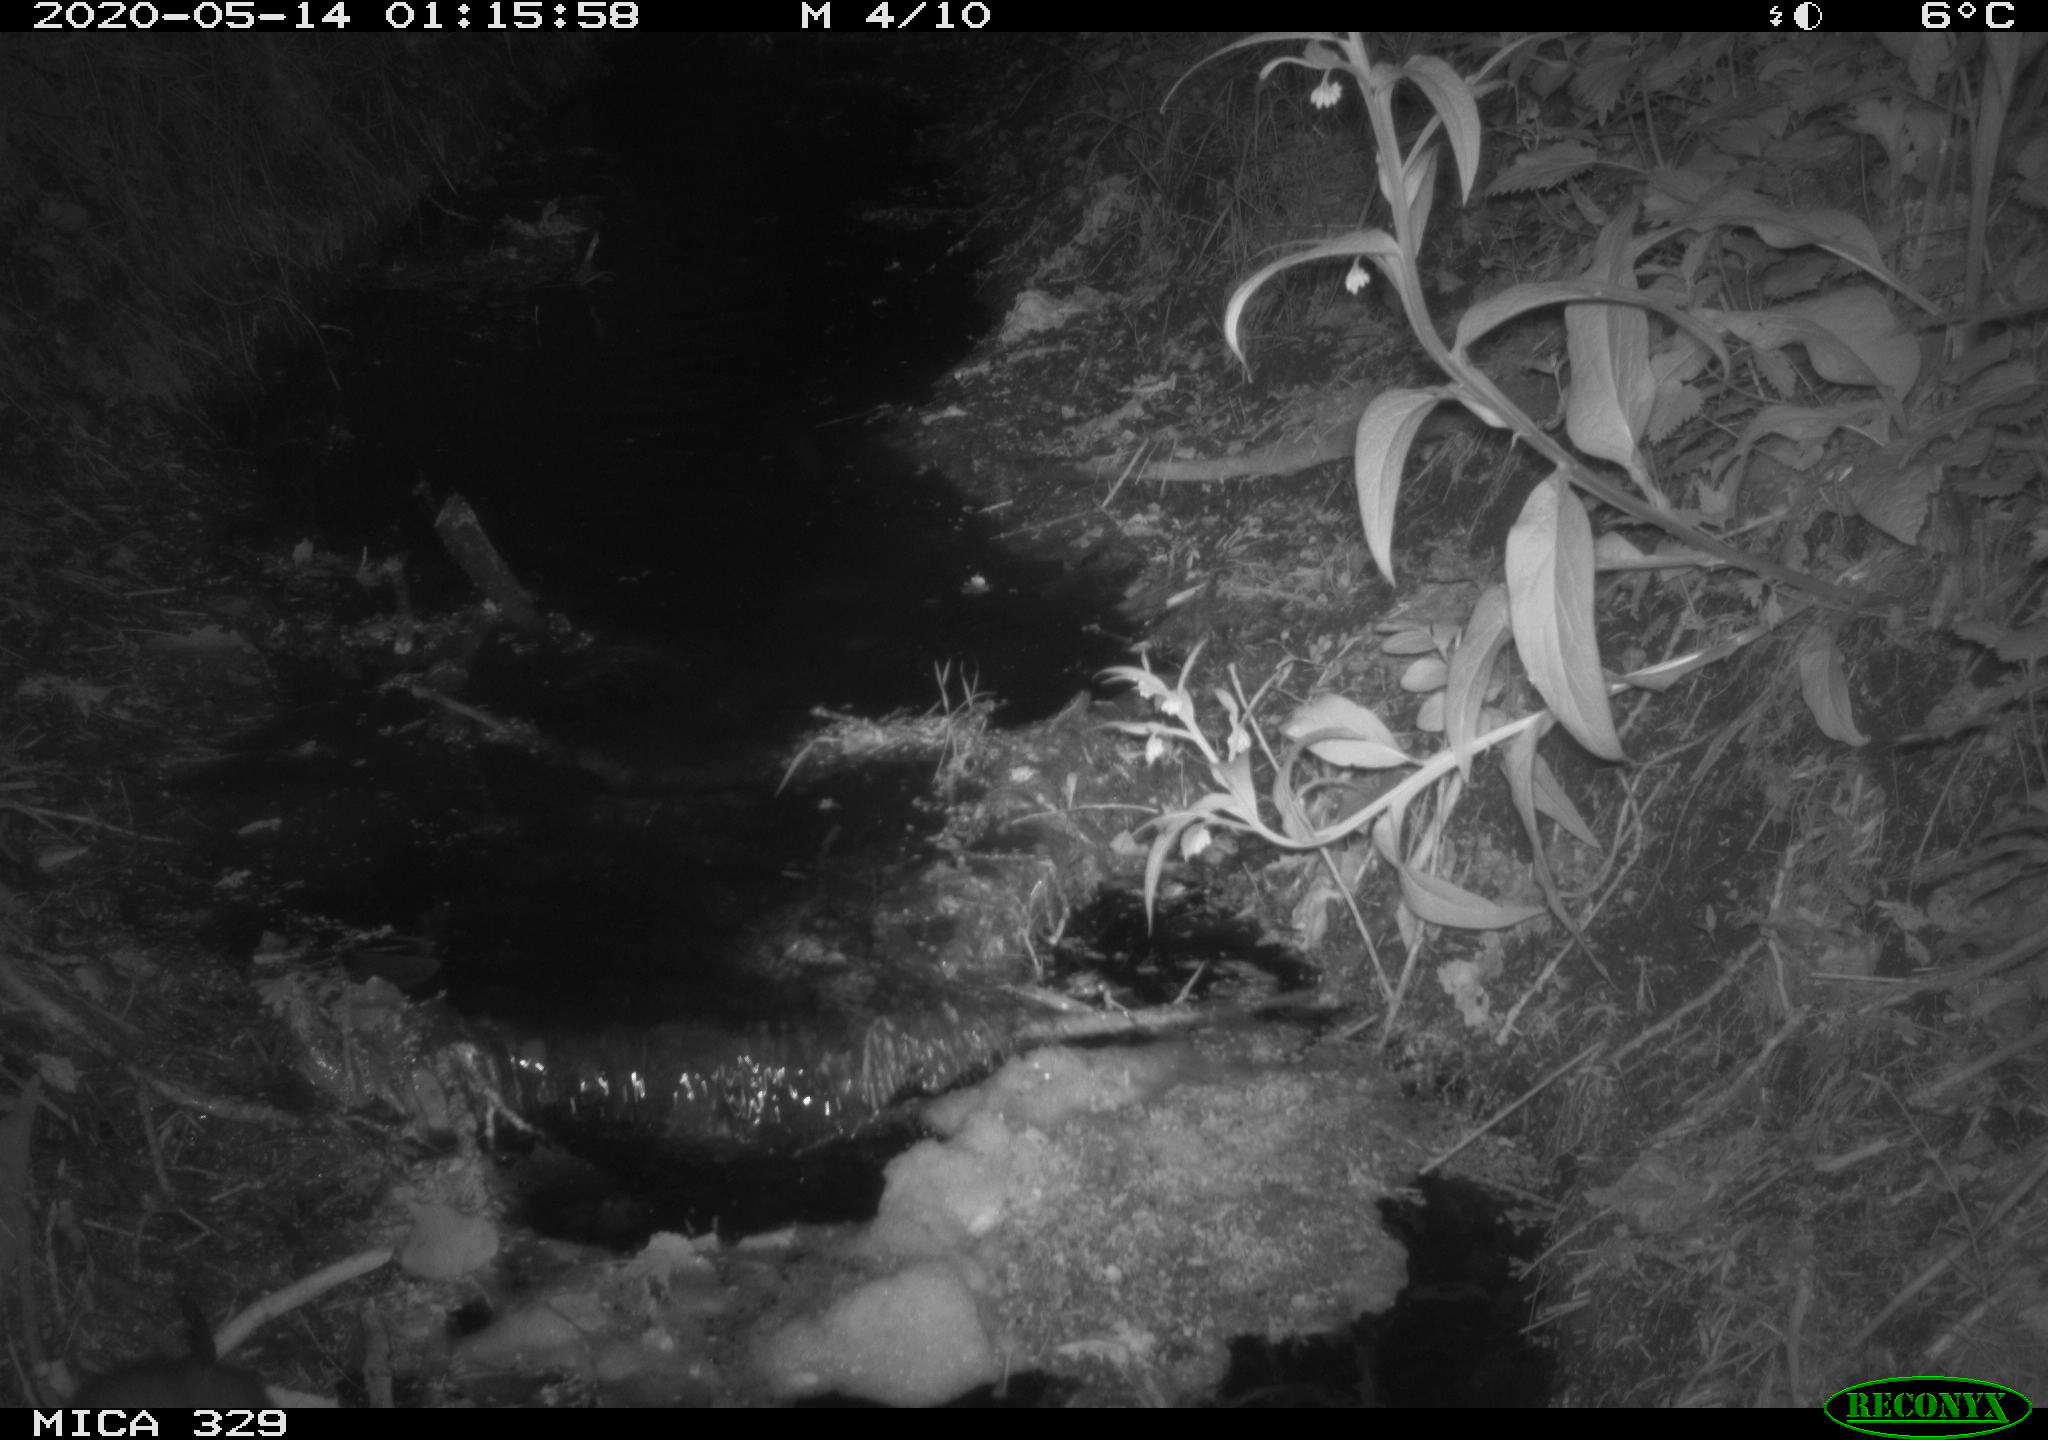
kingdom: Animalia
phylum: Chordata
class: Mammalia
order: Rodentia
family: Cricetidae
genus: Ondatra
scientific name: Ondatra zibethicus
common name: Muskrat
